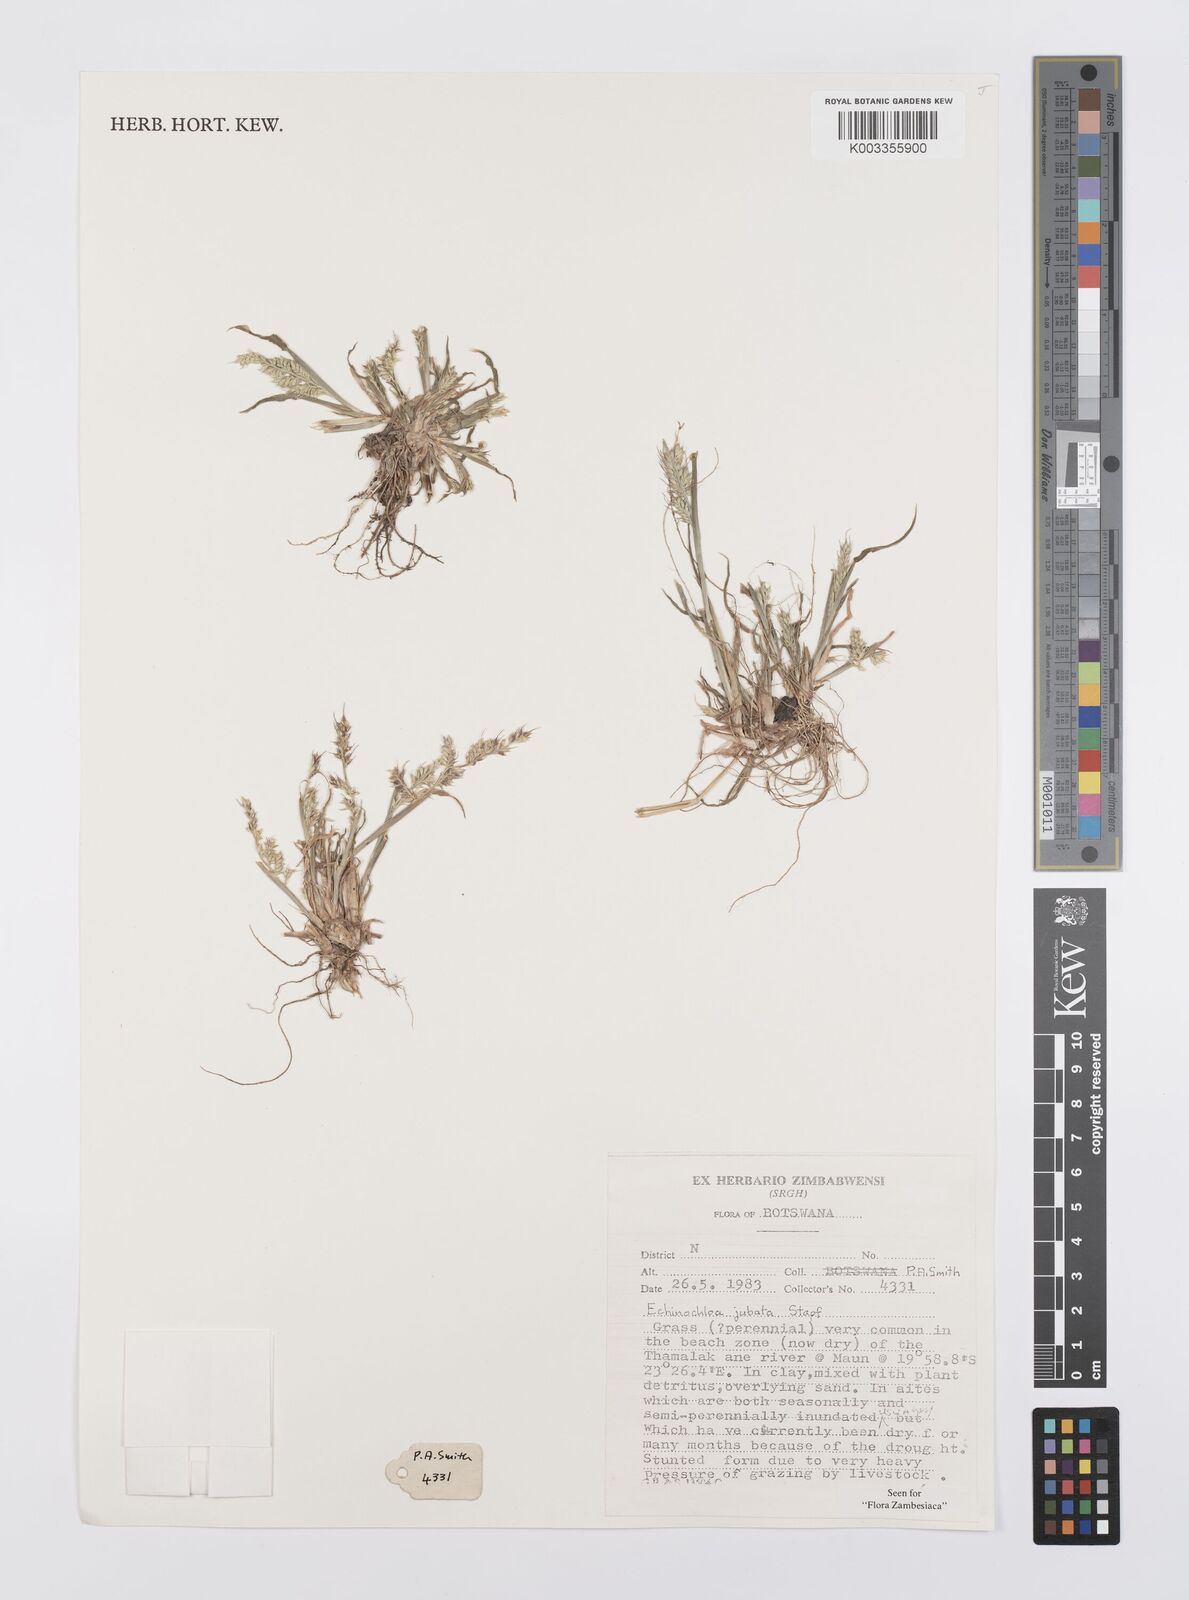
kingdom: Plantae
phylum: Tracheophyta
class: Liliopsida
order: Poales
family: Poaceae
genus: Echinochloa
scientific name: Echinochloa jubata
